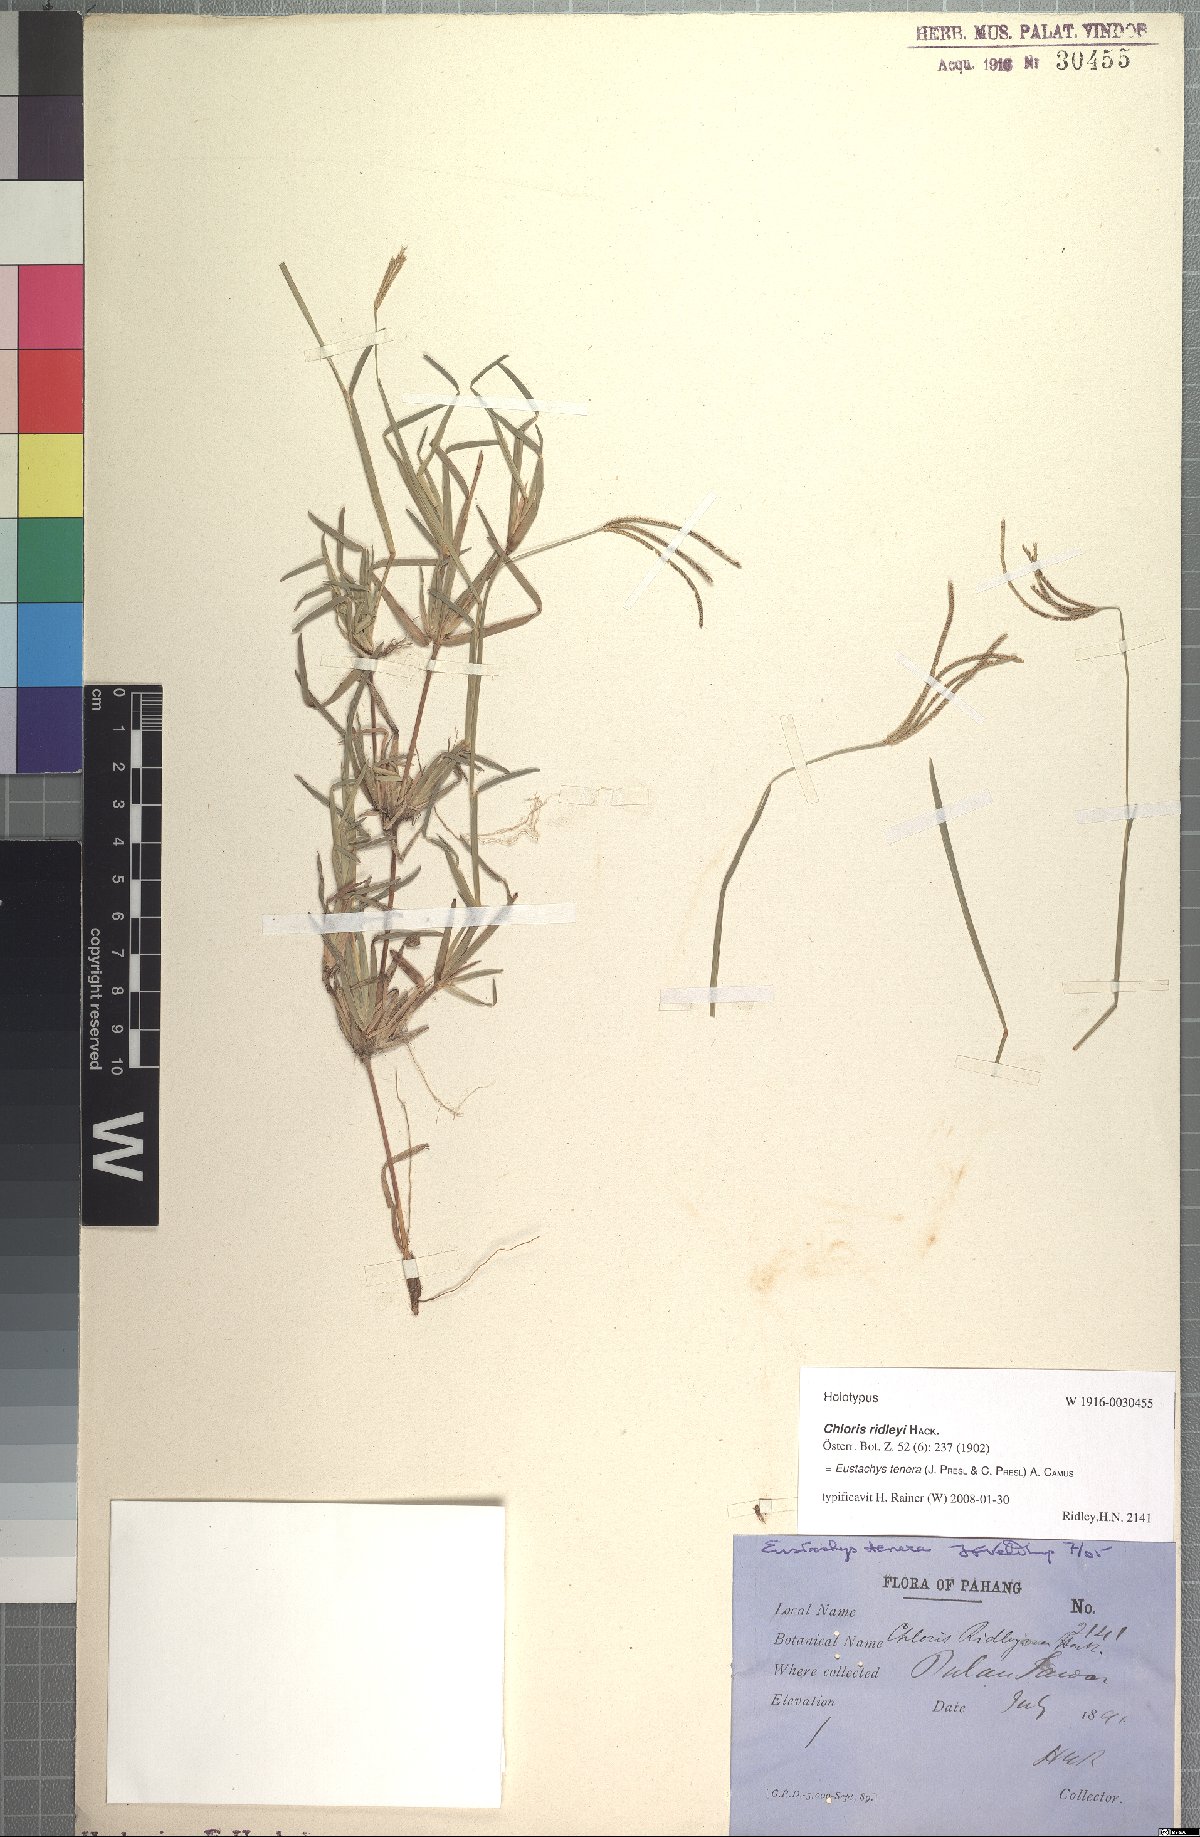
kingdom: Plantae
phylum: Tracheophyta
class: Liliopsida
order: Poales
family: Poaceae
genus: Eustachys
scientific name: Eustachys tenera
